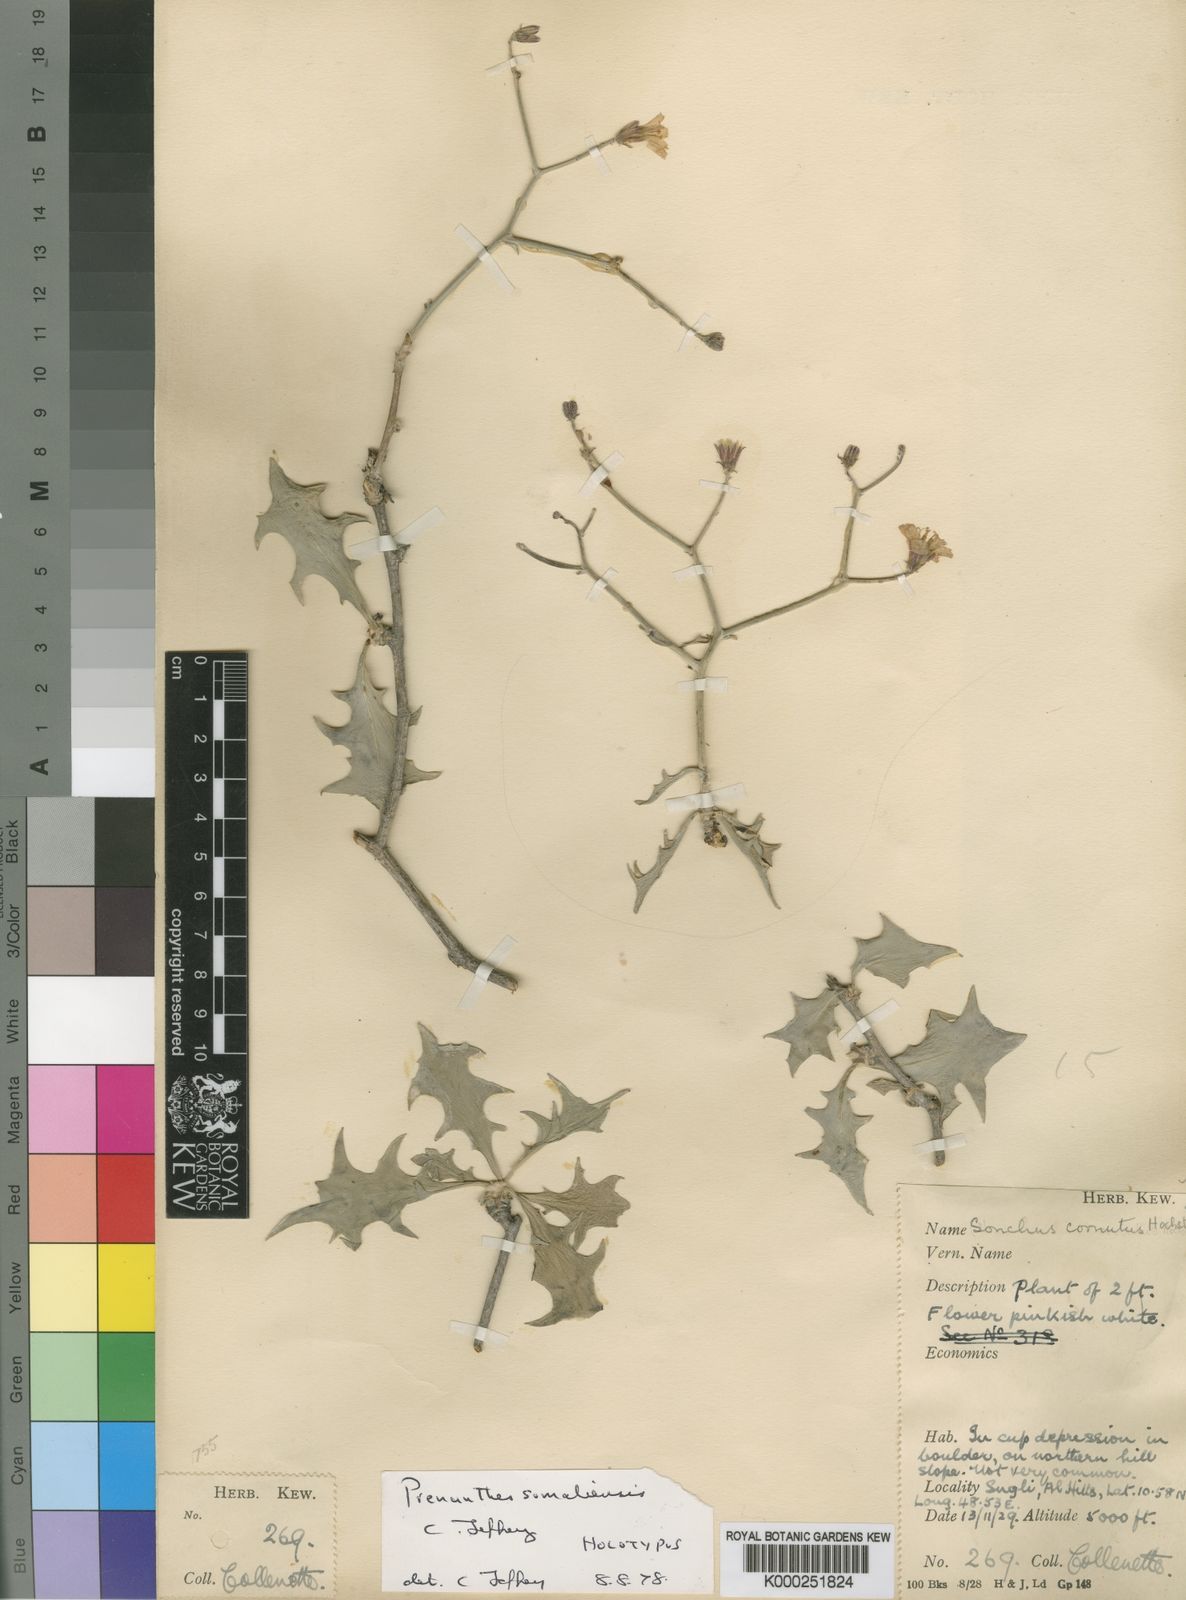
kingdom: Plantae
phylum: Tracheophyta
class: Magnoliopsida
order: Asterales
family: Asteraceae
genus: Erythroseris
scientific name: Erythroseris somalensis
